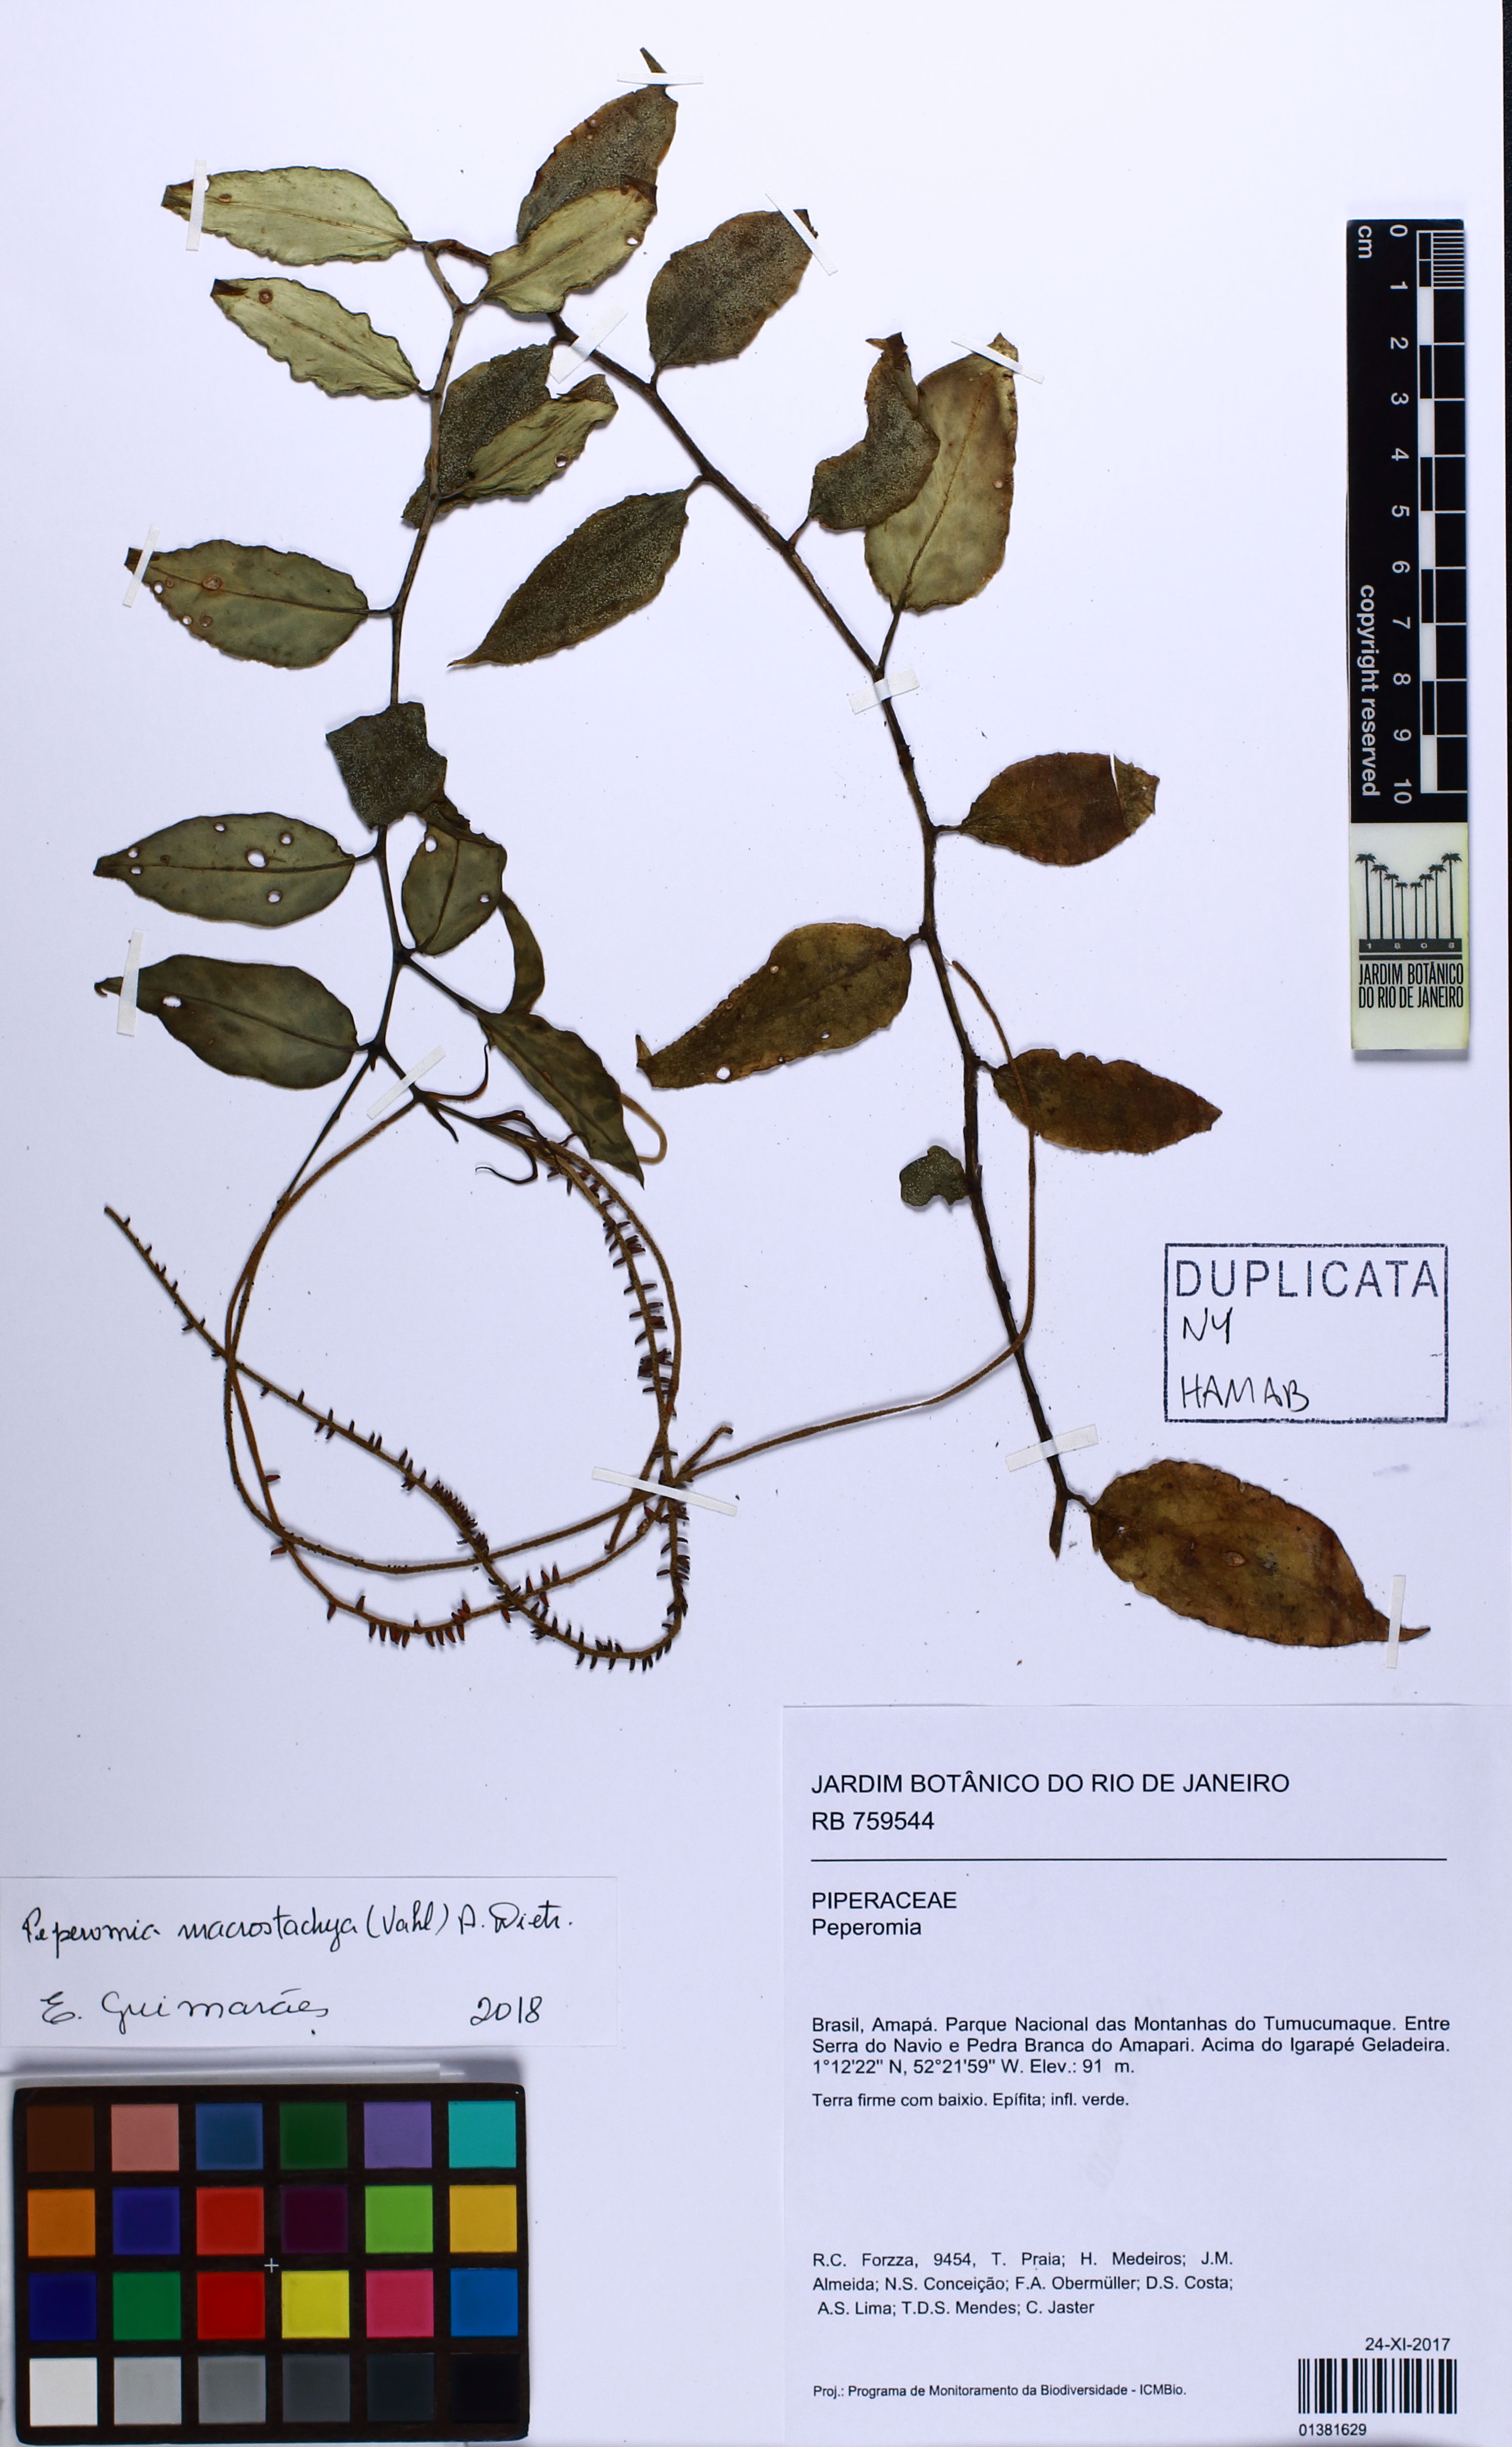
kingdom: Plantae
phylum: Tracheophyta
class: Magnoliopsida
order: Piperales
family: Piperaceae
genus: Peperomia
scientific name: Peperomia macrostachyos
